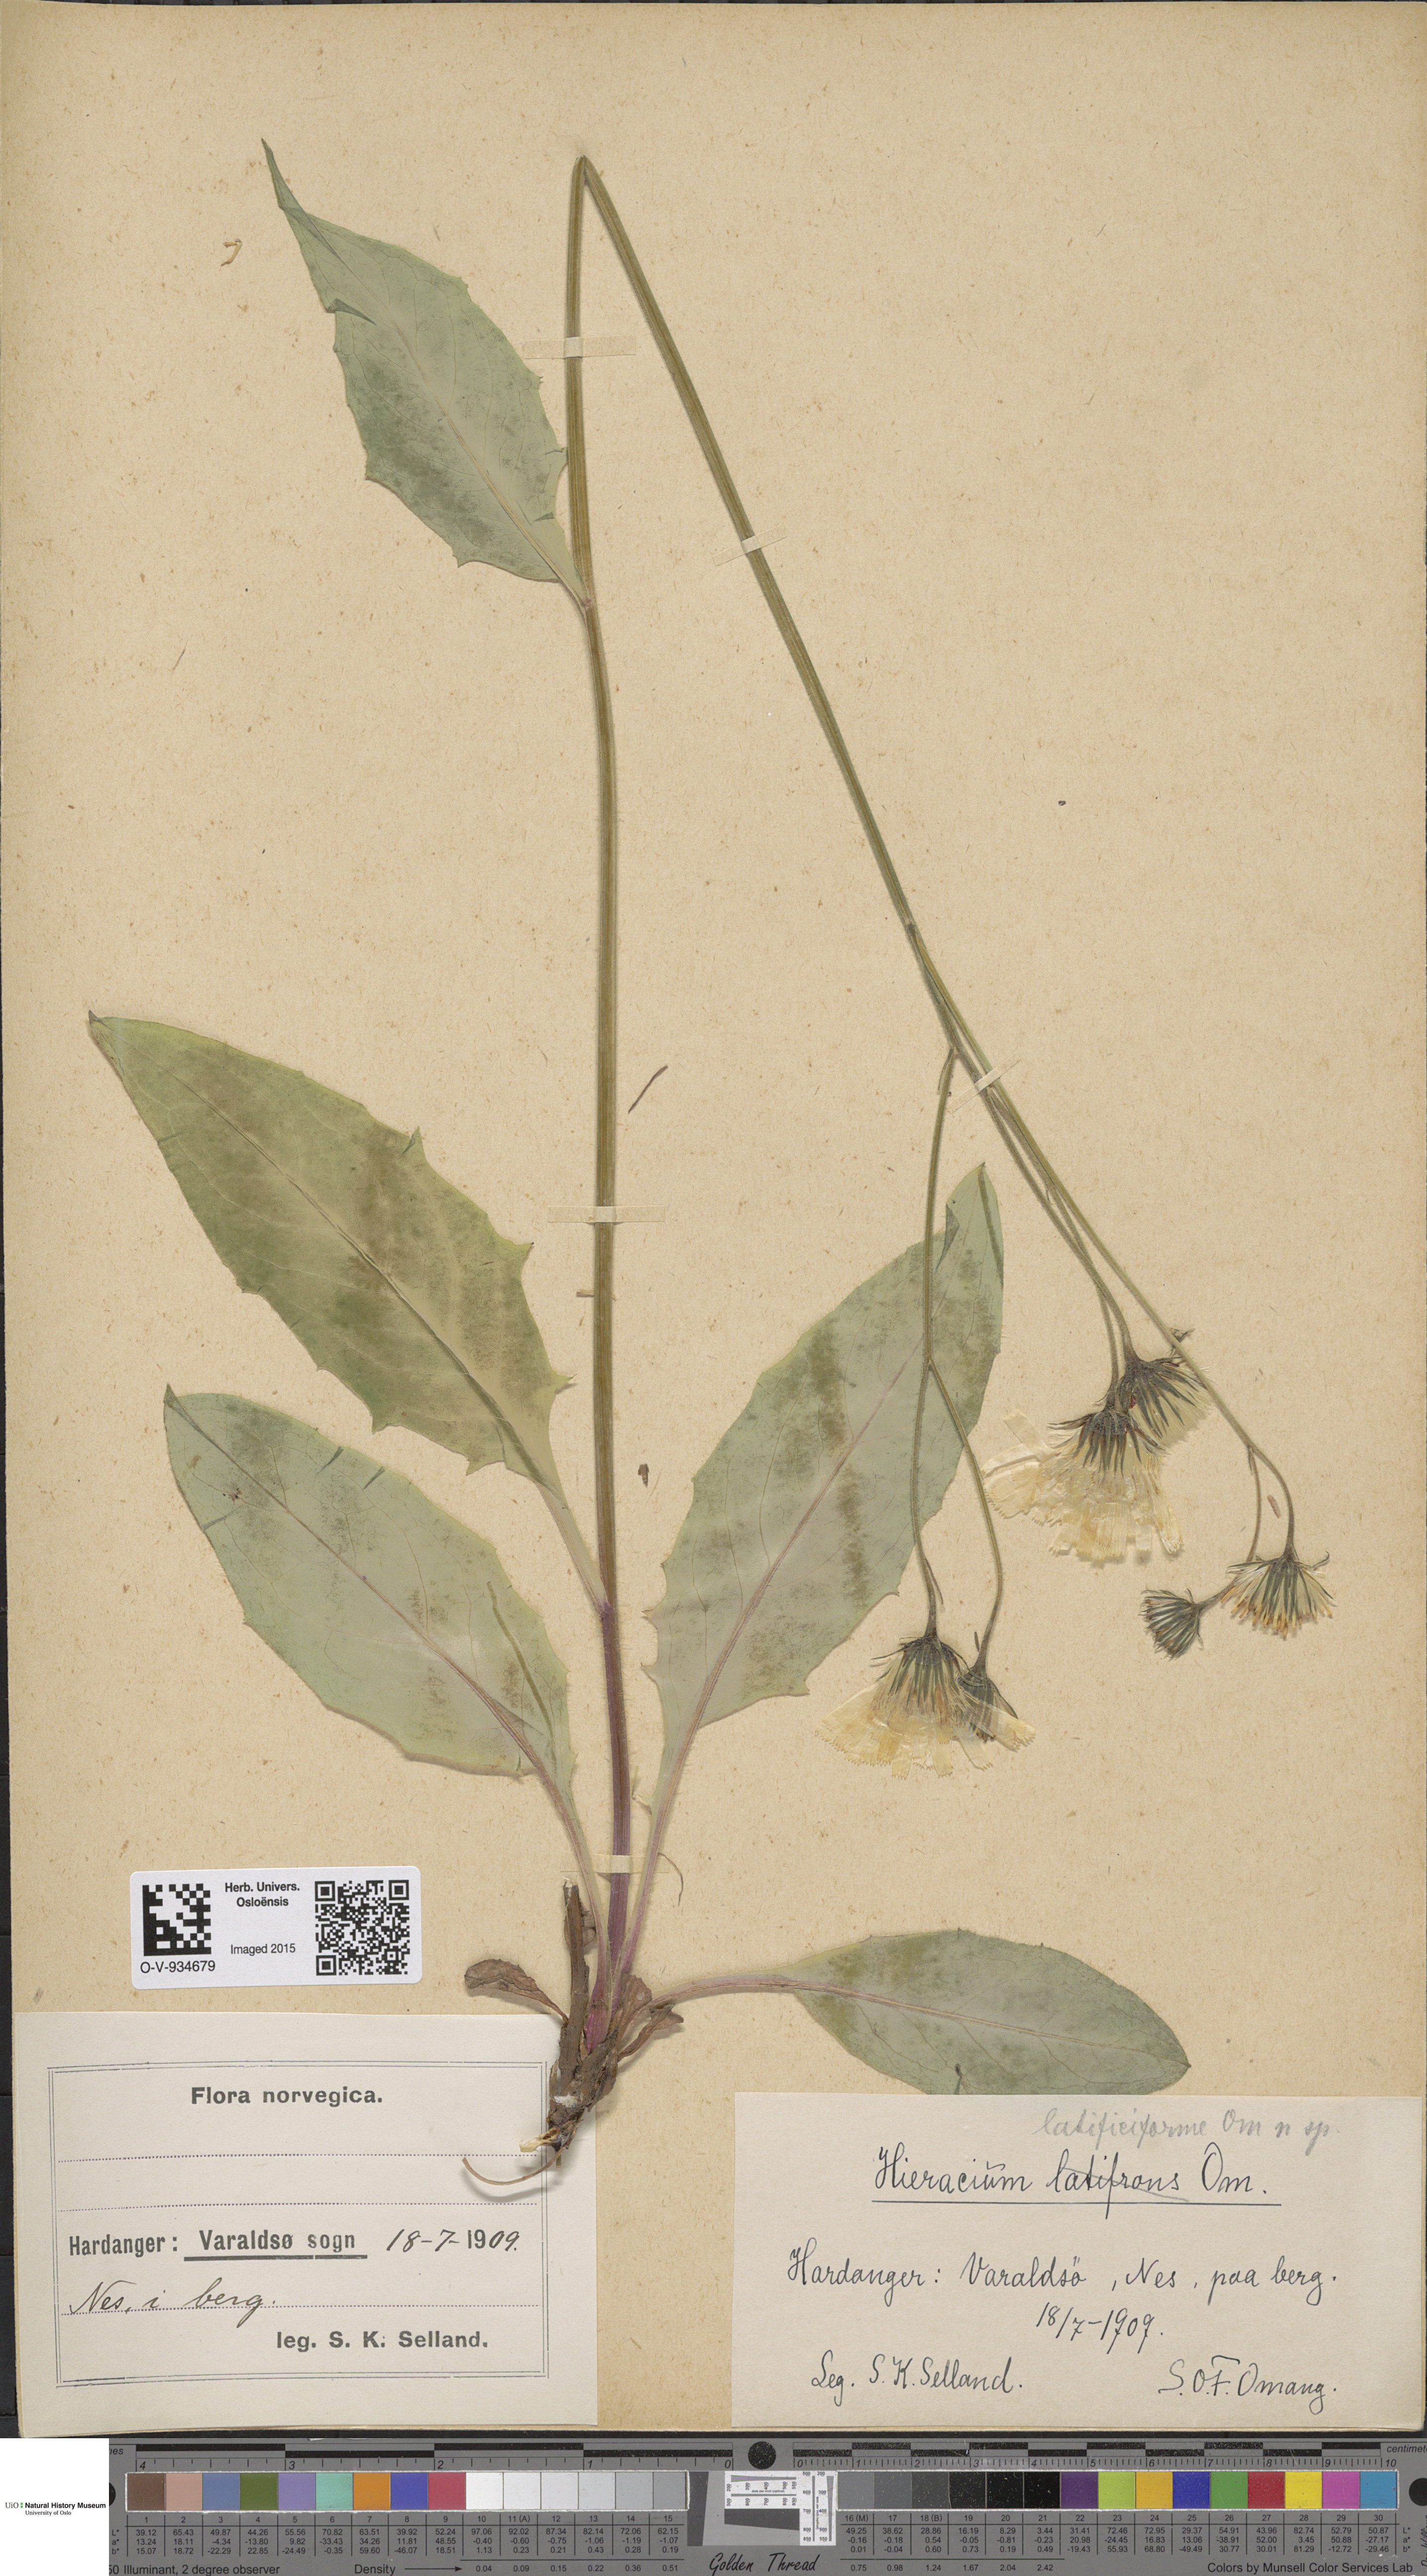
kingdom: Plantae
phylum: Tracheophyta
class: Magnoliopsida
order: Asterales
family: Asteraceae
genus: Hieracium
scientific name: Hieracium
